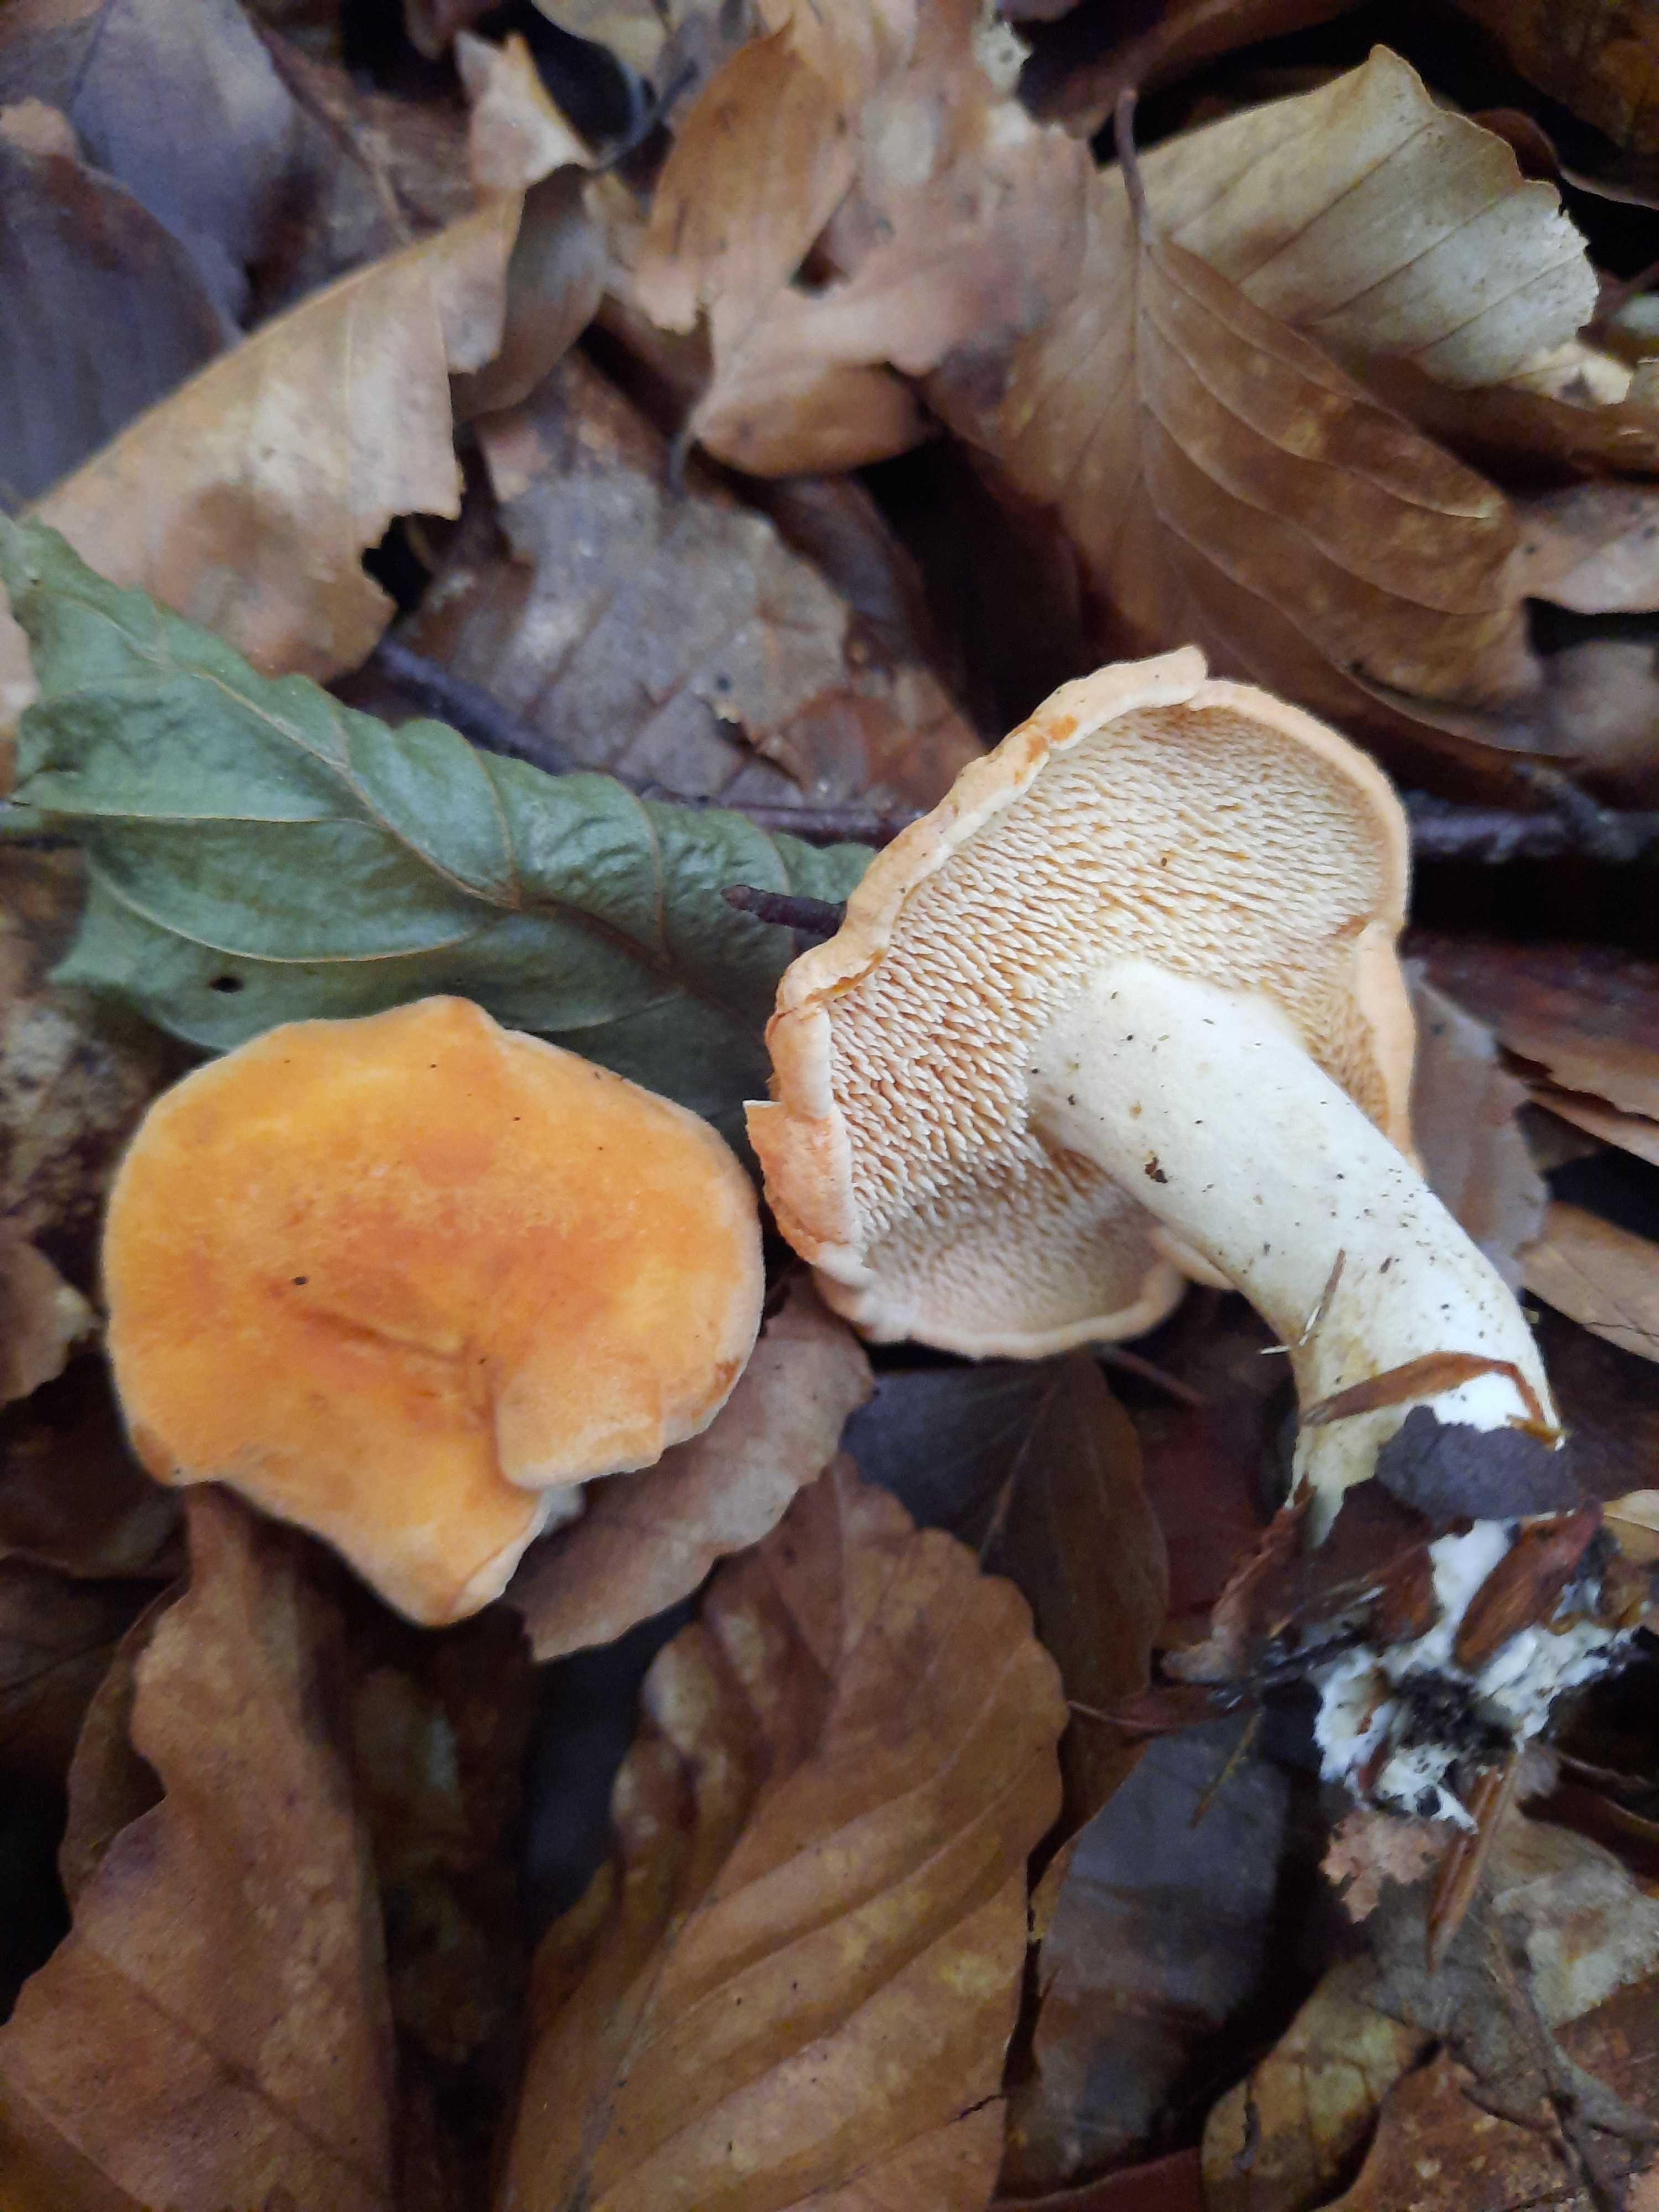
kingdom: Fungi
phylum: Basidiomycota
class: Agaricomycetes
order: Cantharellales
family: Hydnaceae
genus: Hydnum
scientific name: Hydnum
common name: pigsvamp
